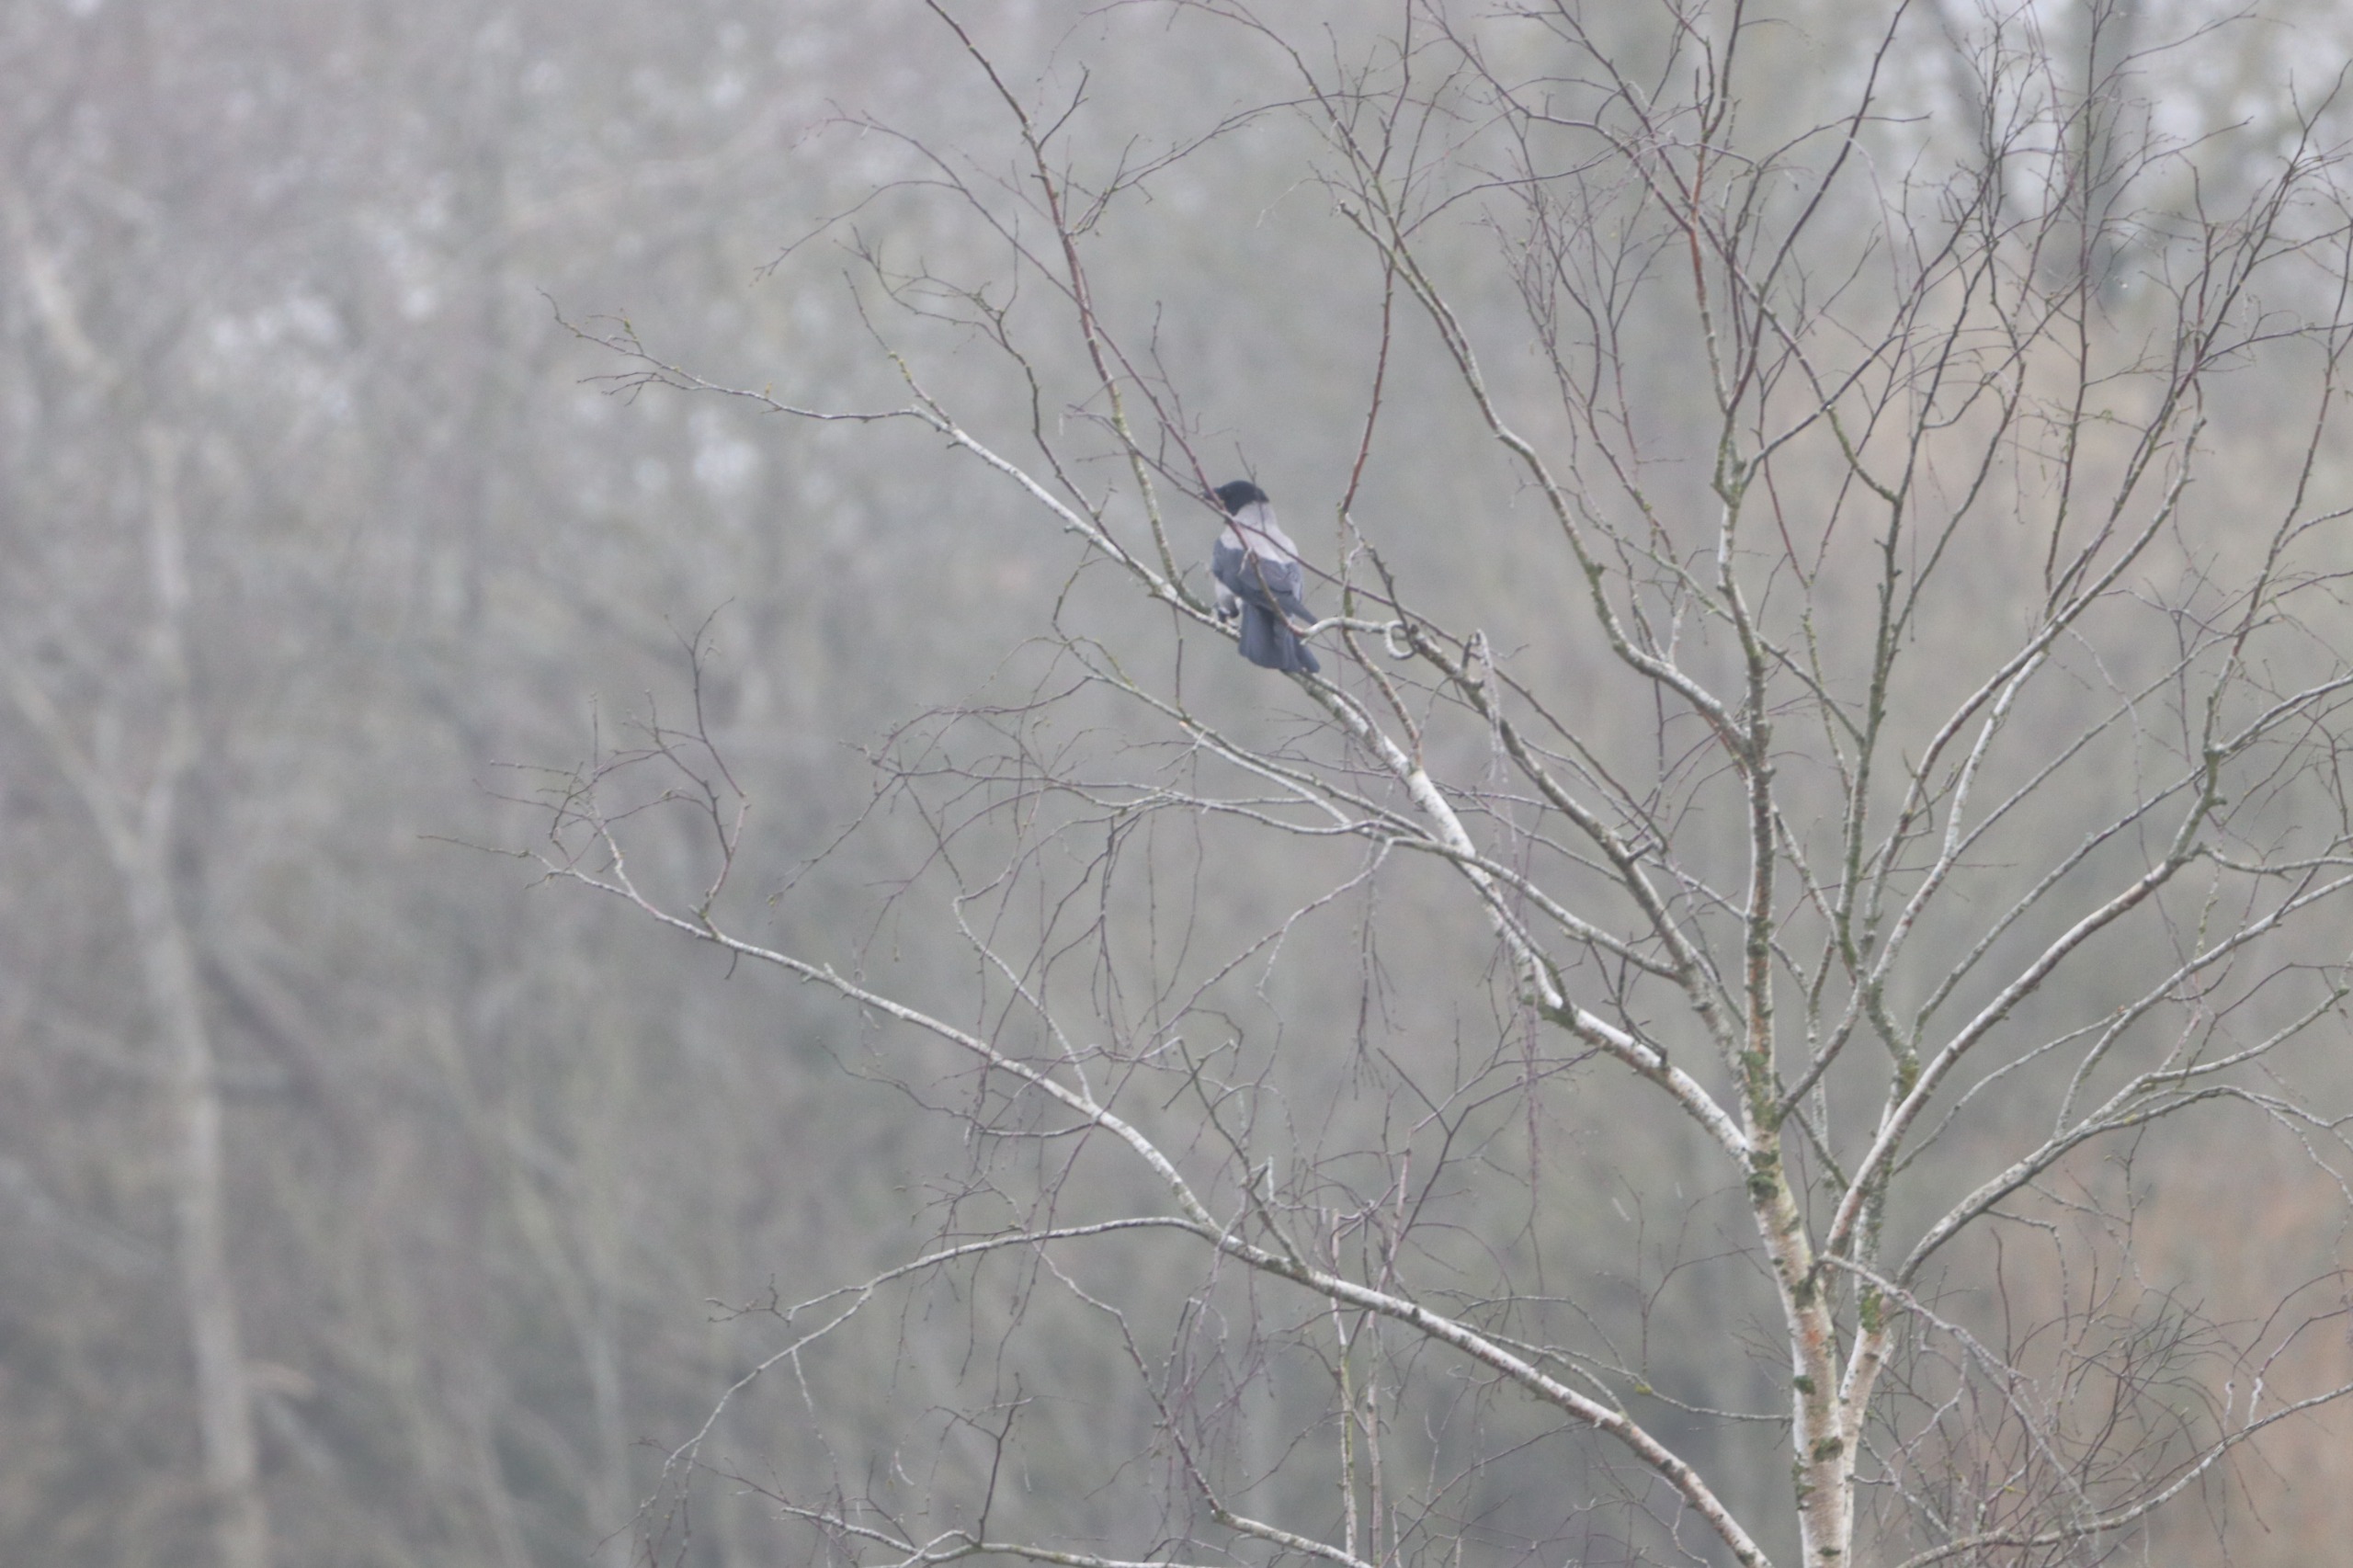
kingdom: Animalia
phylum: Chordata
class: Aves
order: Passeriformes
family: Corvidae
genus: Corvus
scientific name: Corvus cornix
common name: Gråkrage
